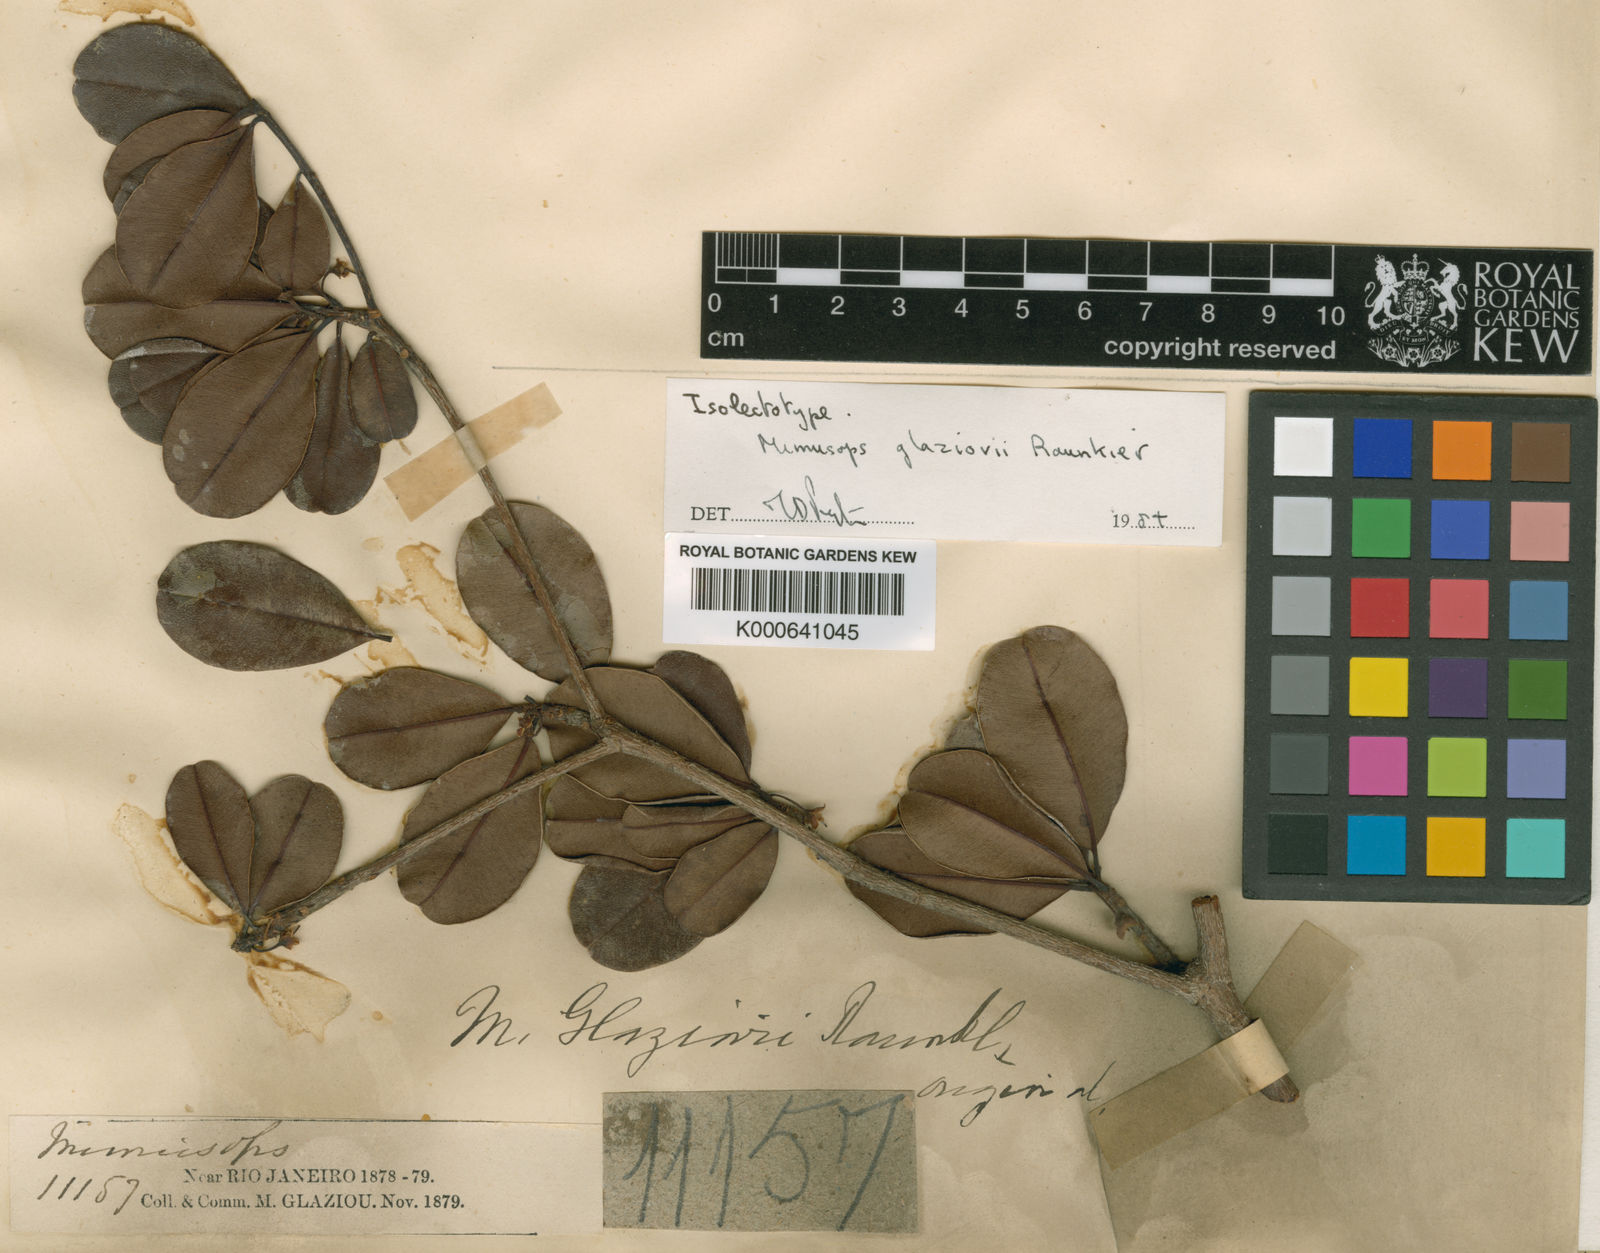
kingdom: Plantae
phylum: Tracheophyta
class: Magnoliopsida
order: Ericales
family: Sapotaceae
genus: Manilkara
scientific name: Manilkara
